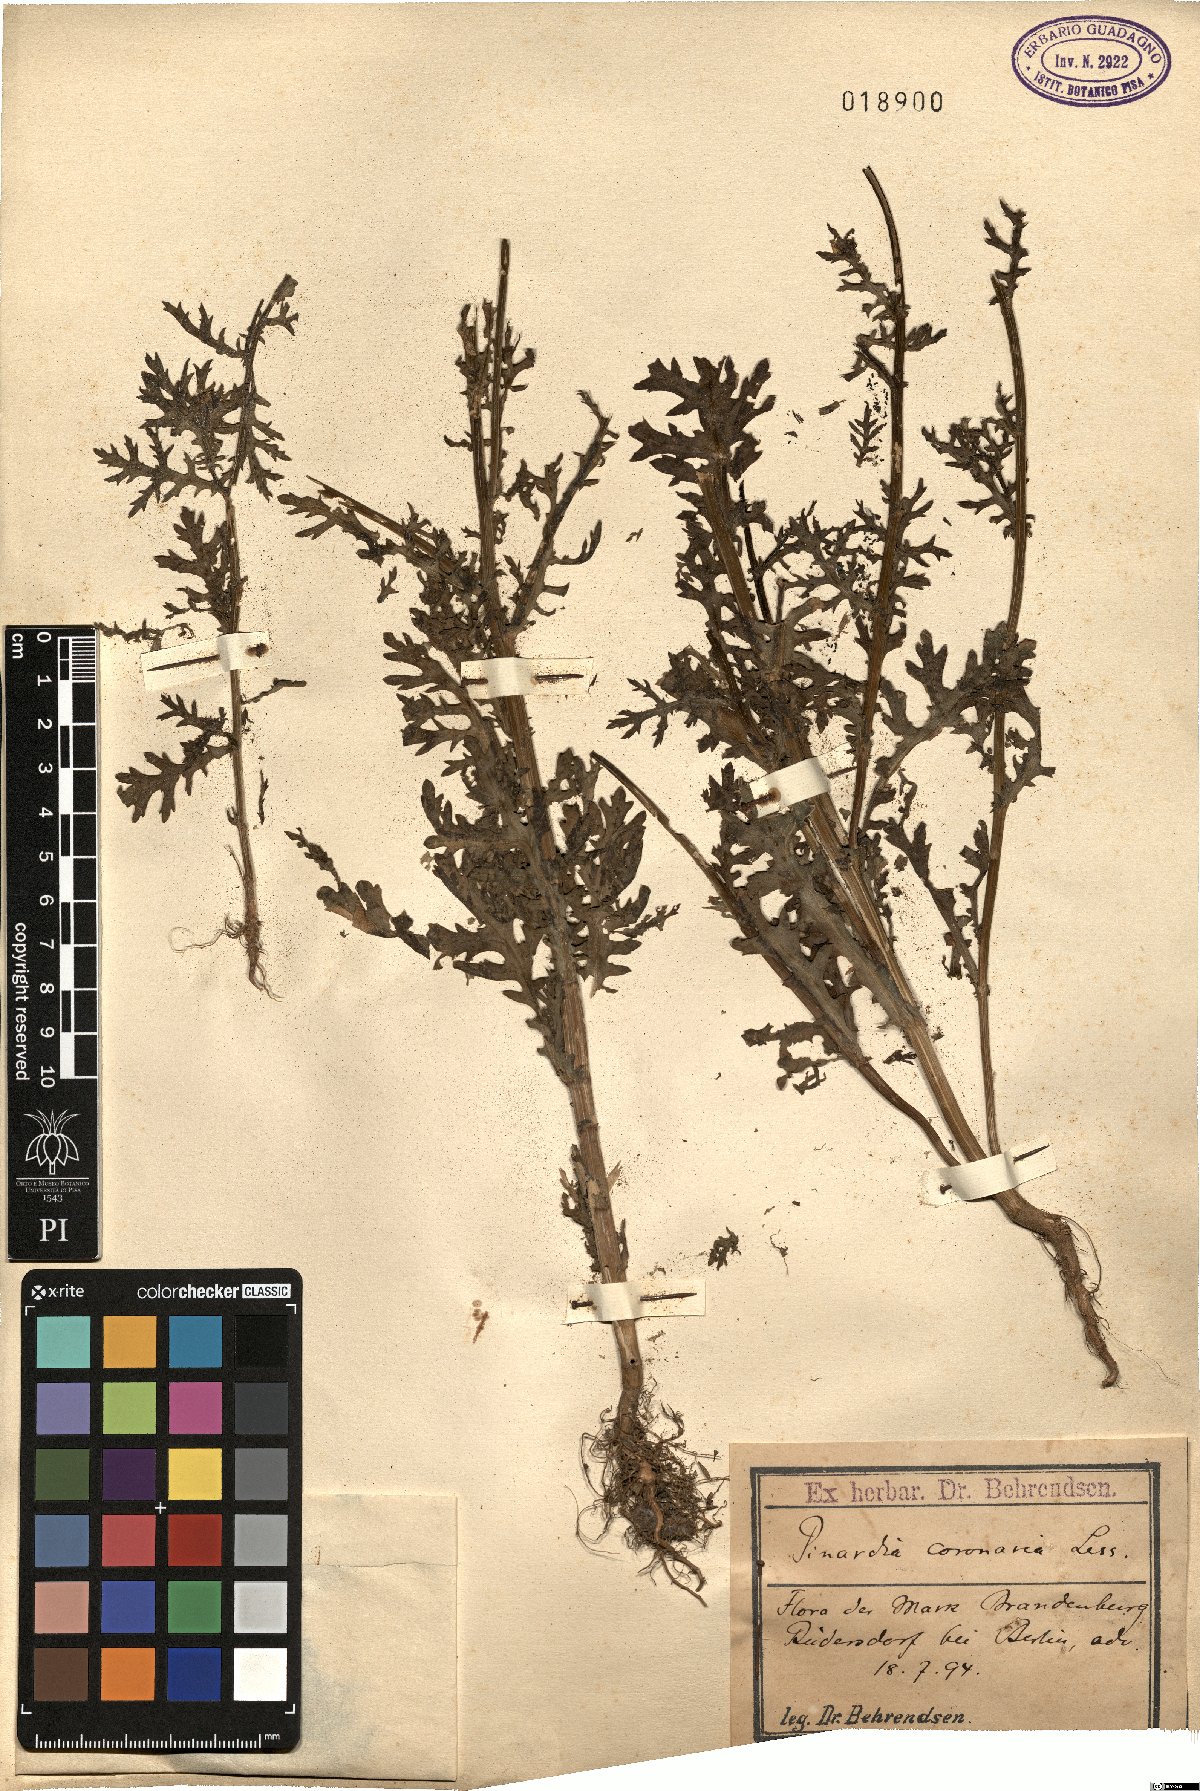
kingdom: Plantae
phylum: Tracheophyta
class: Magnoliopsida
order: Asterales
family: Asteraceae
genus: Glebionis
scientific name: Glebionis coronaria
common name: Crowndaisy
